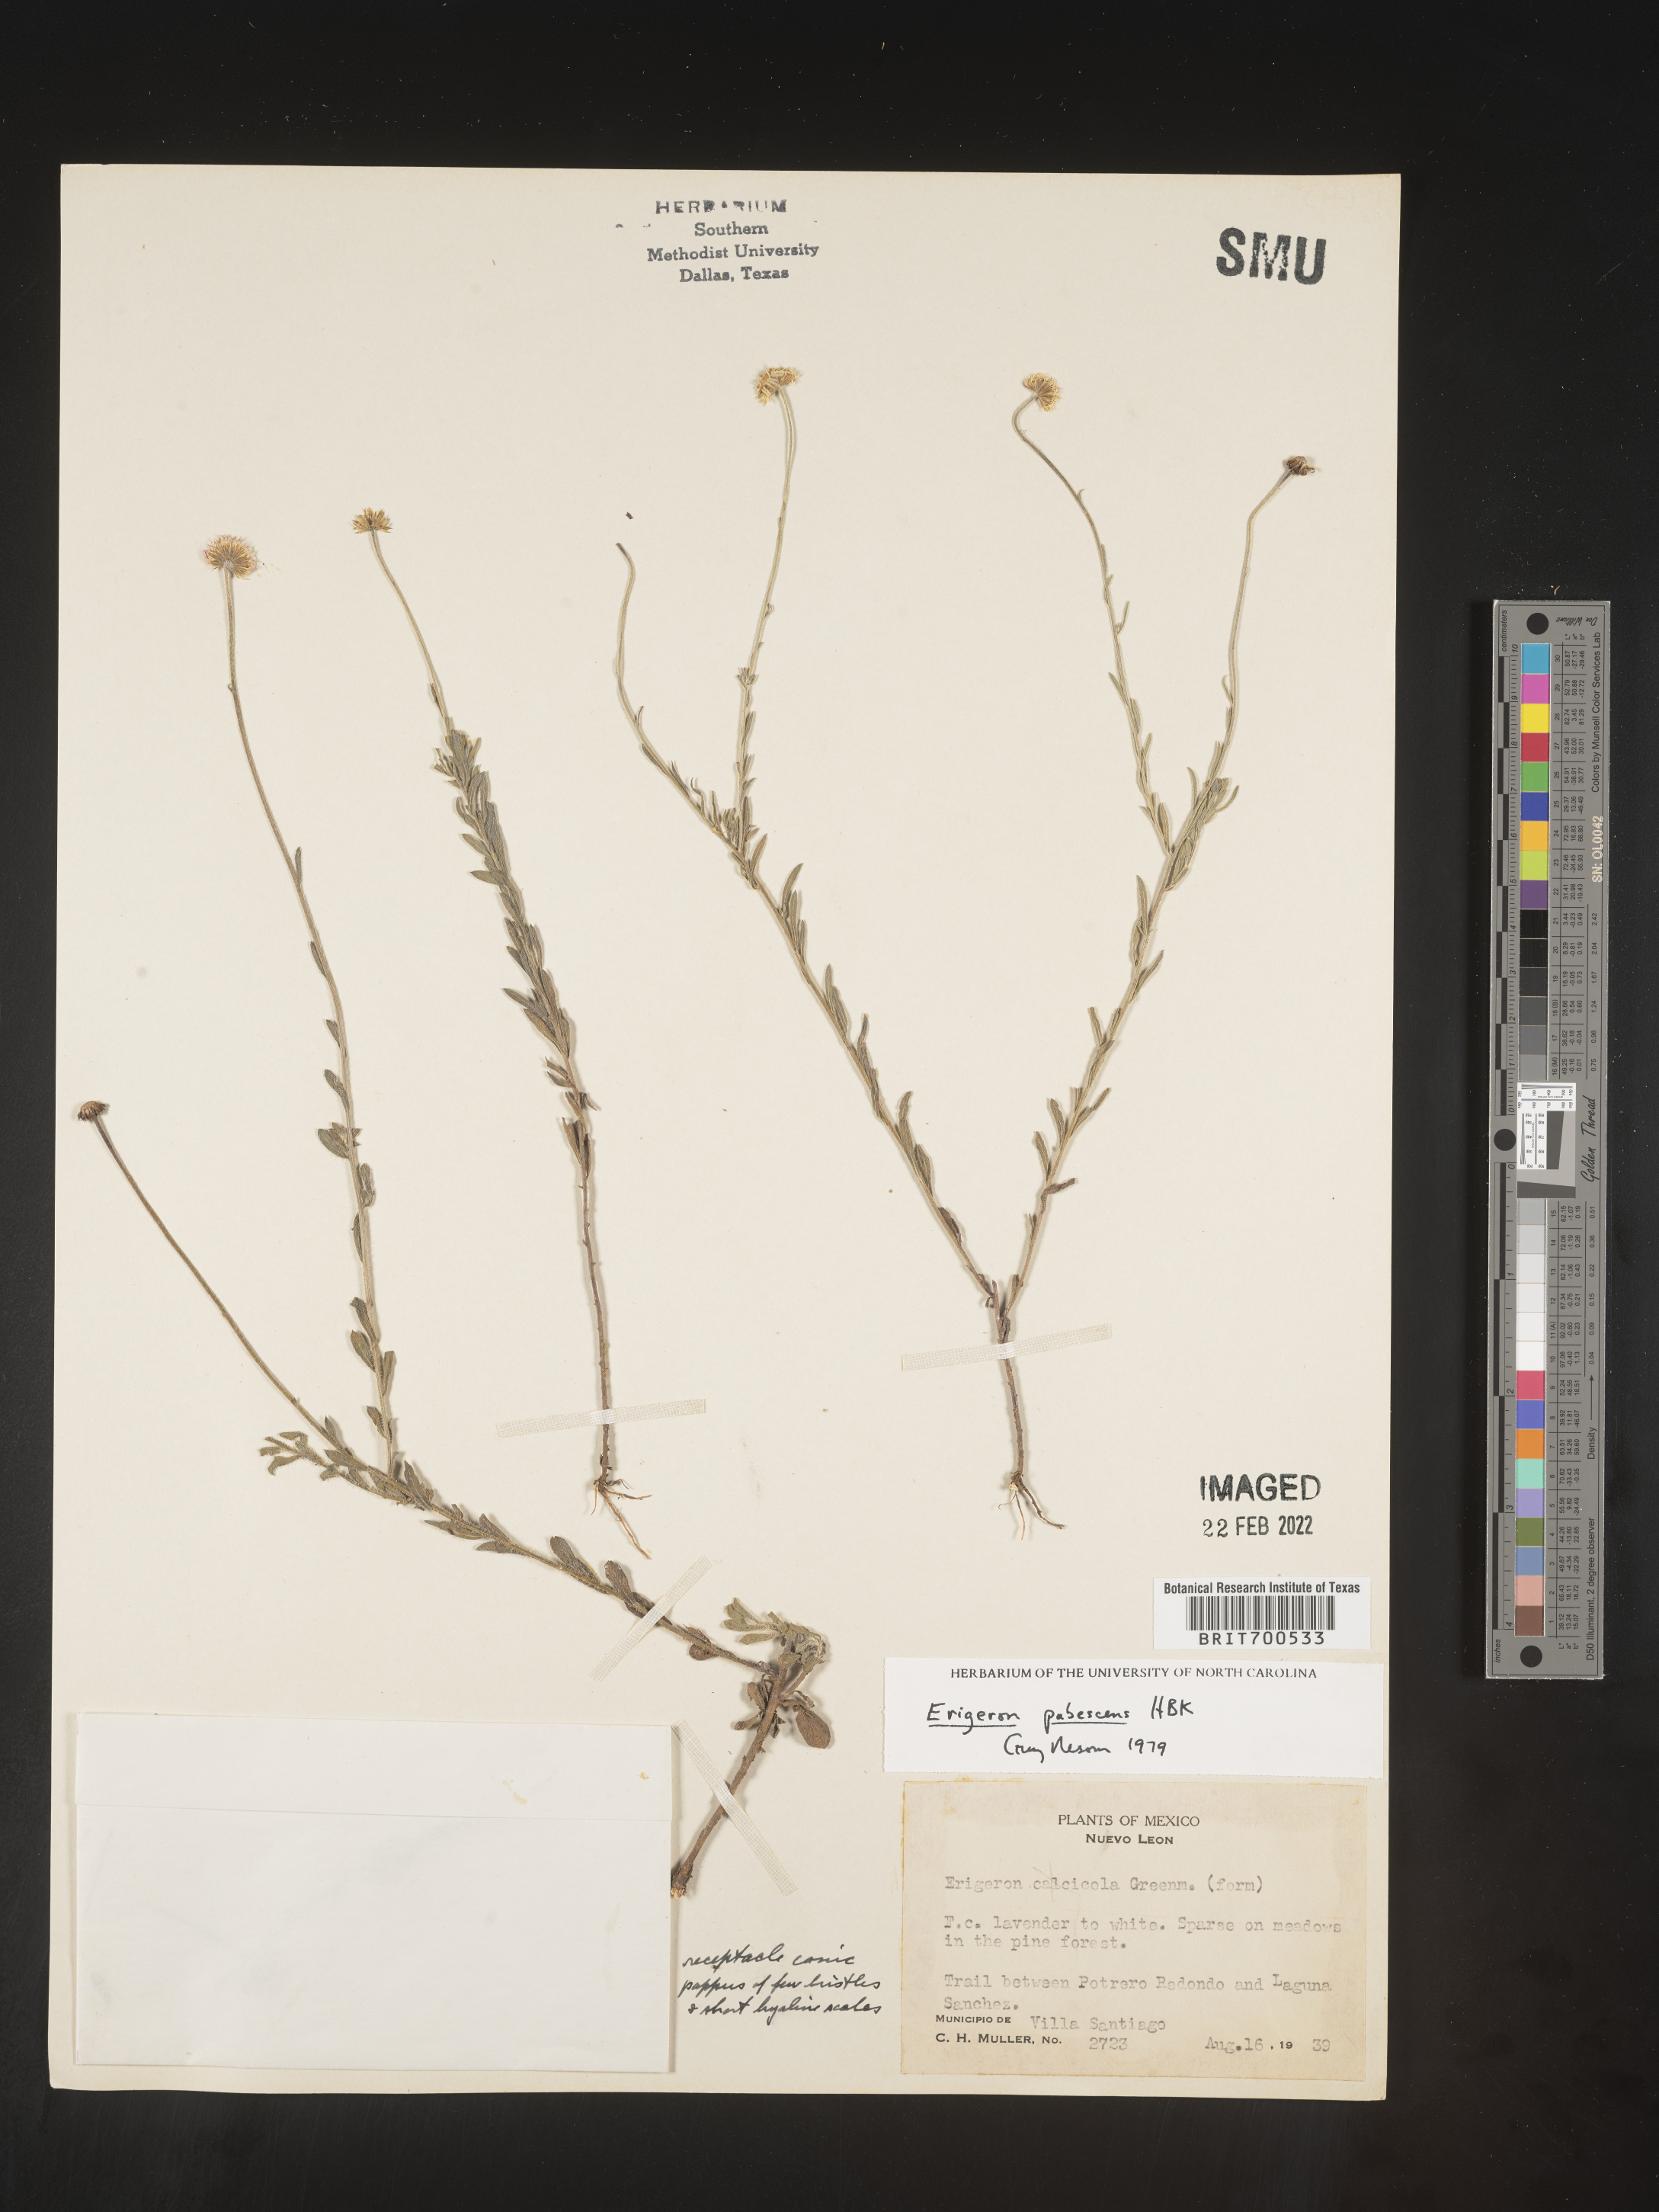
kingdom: Plantae
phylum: Tracheophyta
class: Magnoliopsida
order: Asterales
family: Asteraceae
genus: Erigeron
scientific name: Erigeron pubescens
